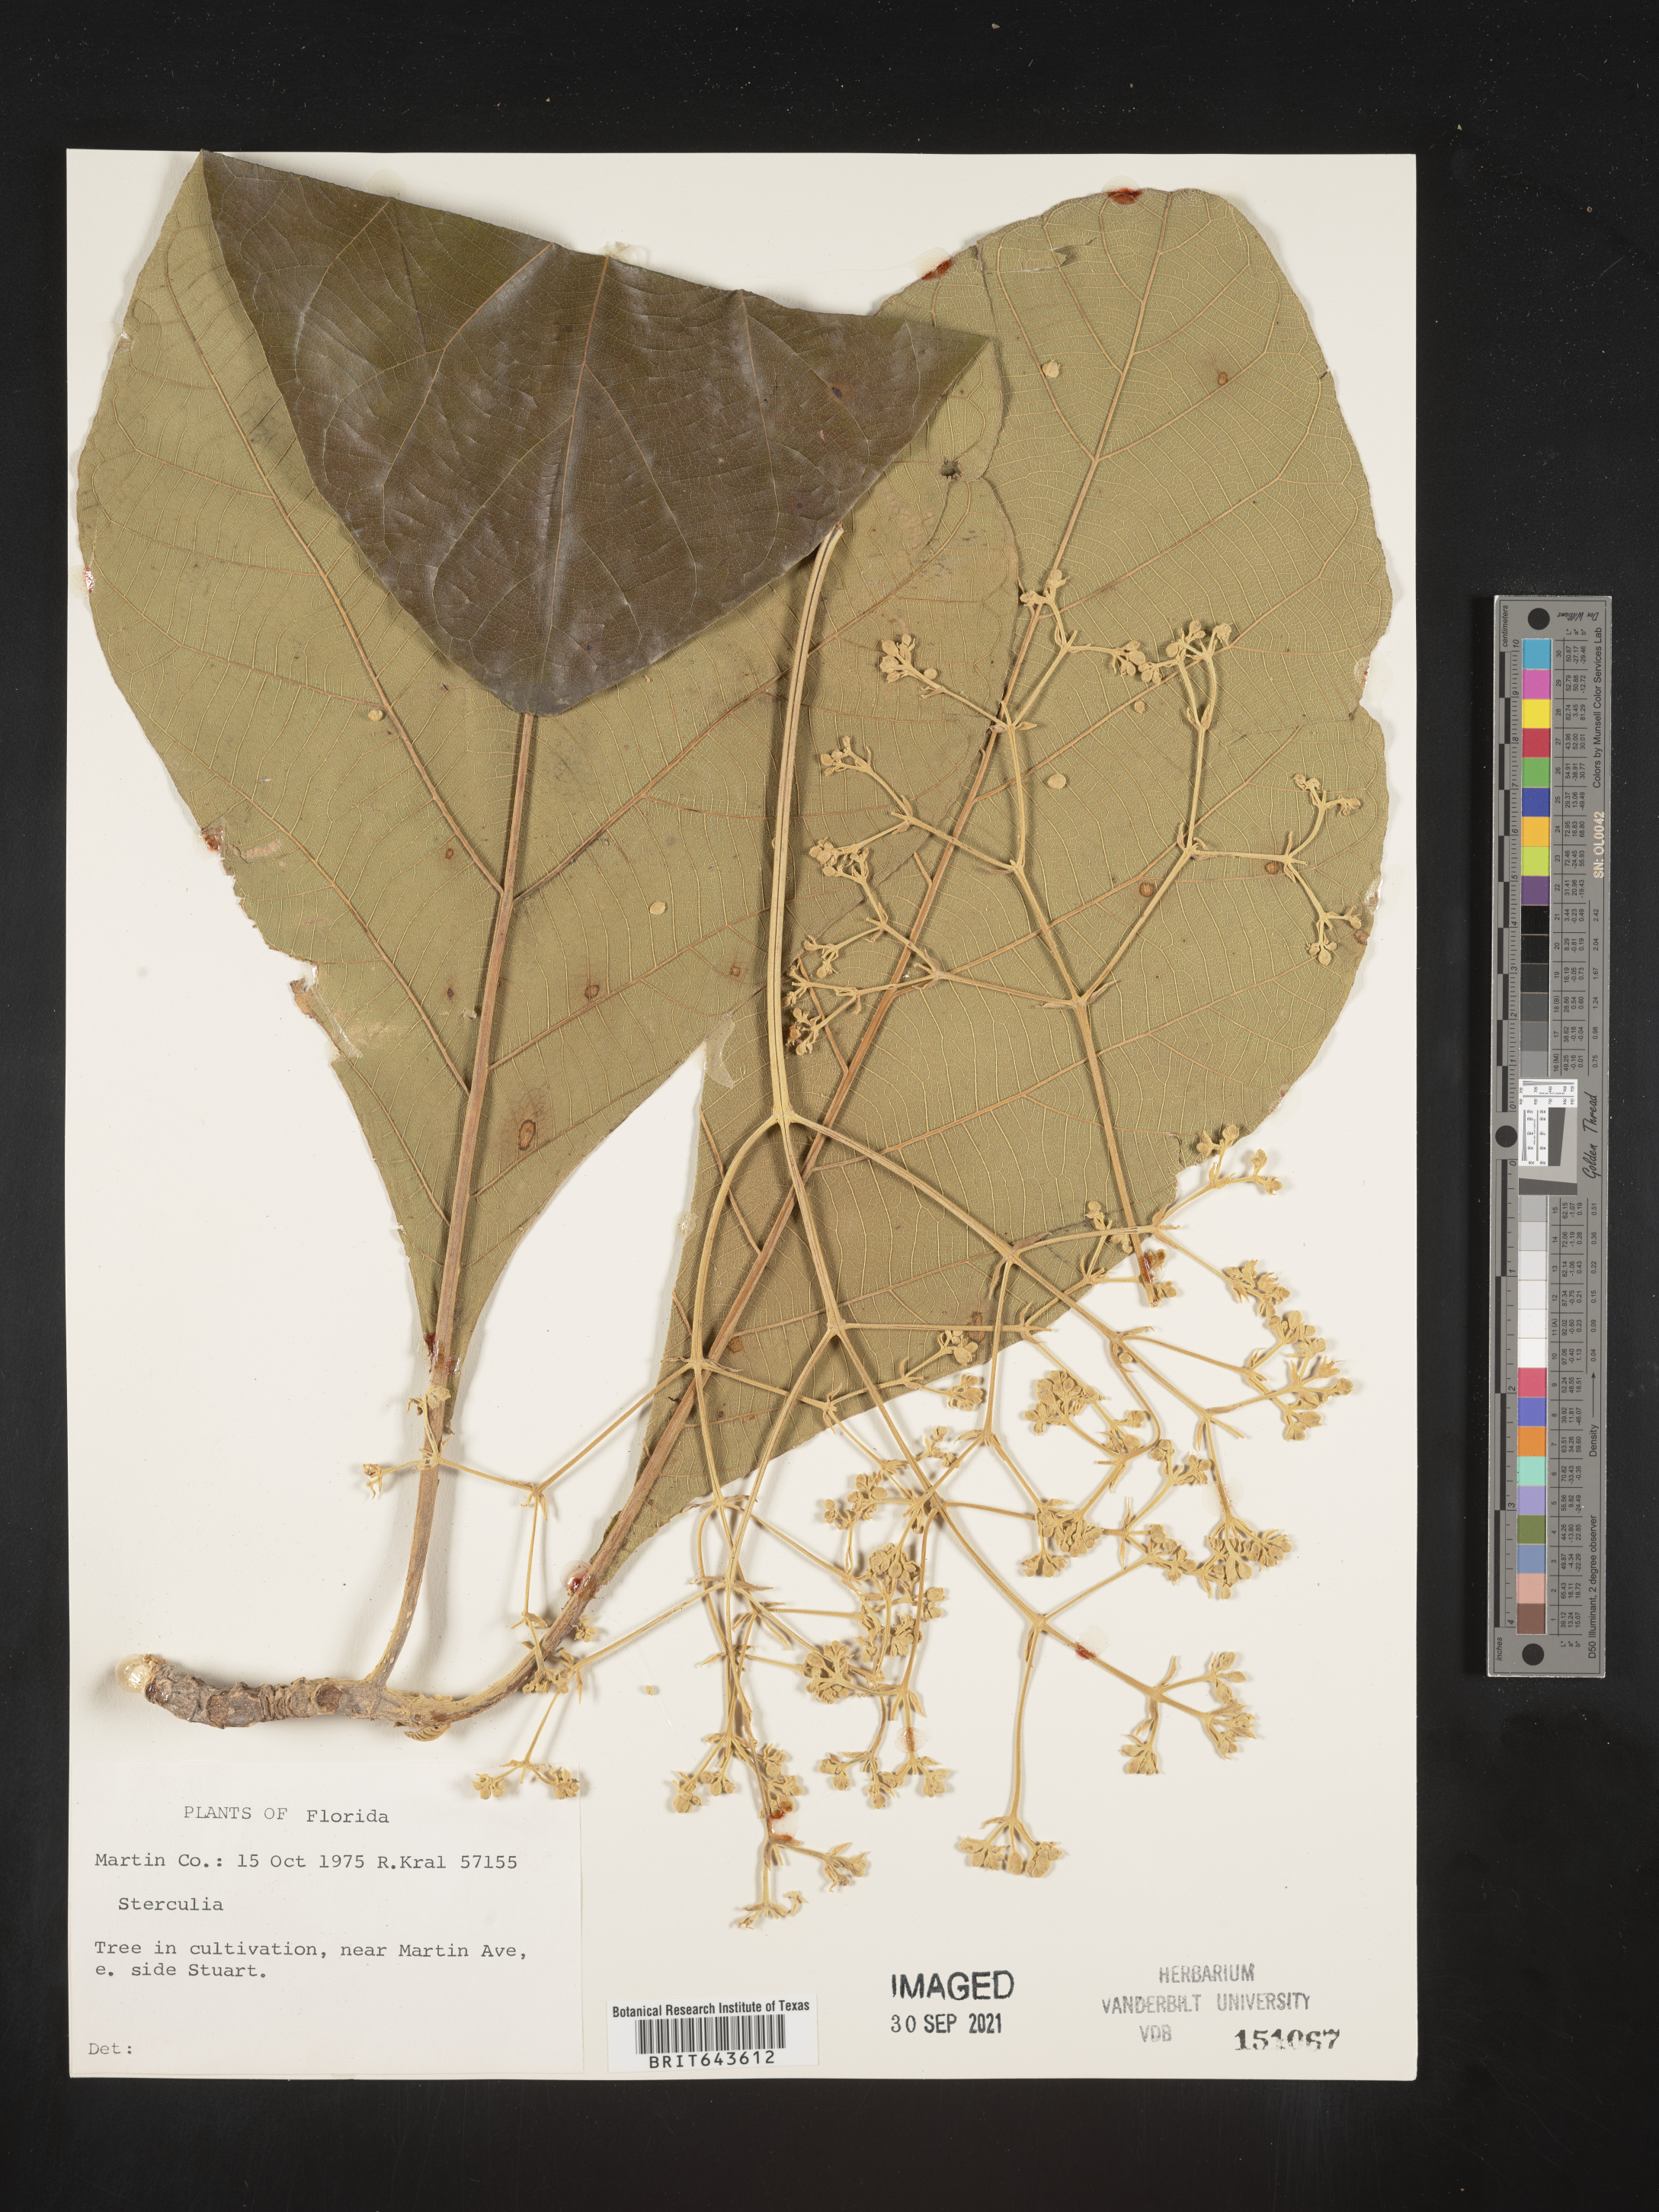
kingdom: Plantae
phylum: Tracheophyta
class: Magnoliopsida
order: Malvales
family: Malvaceae
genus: Sterculia
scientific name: Sterculia
